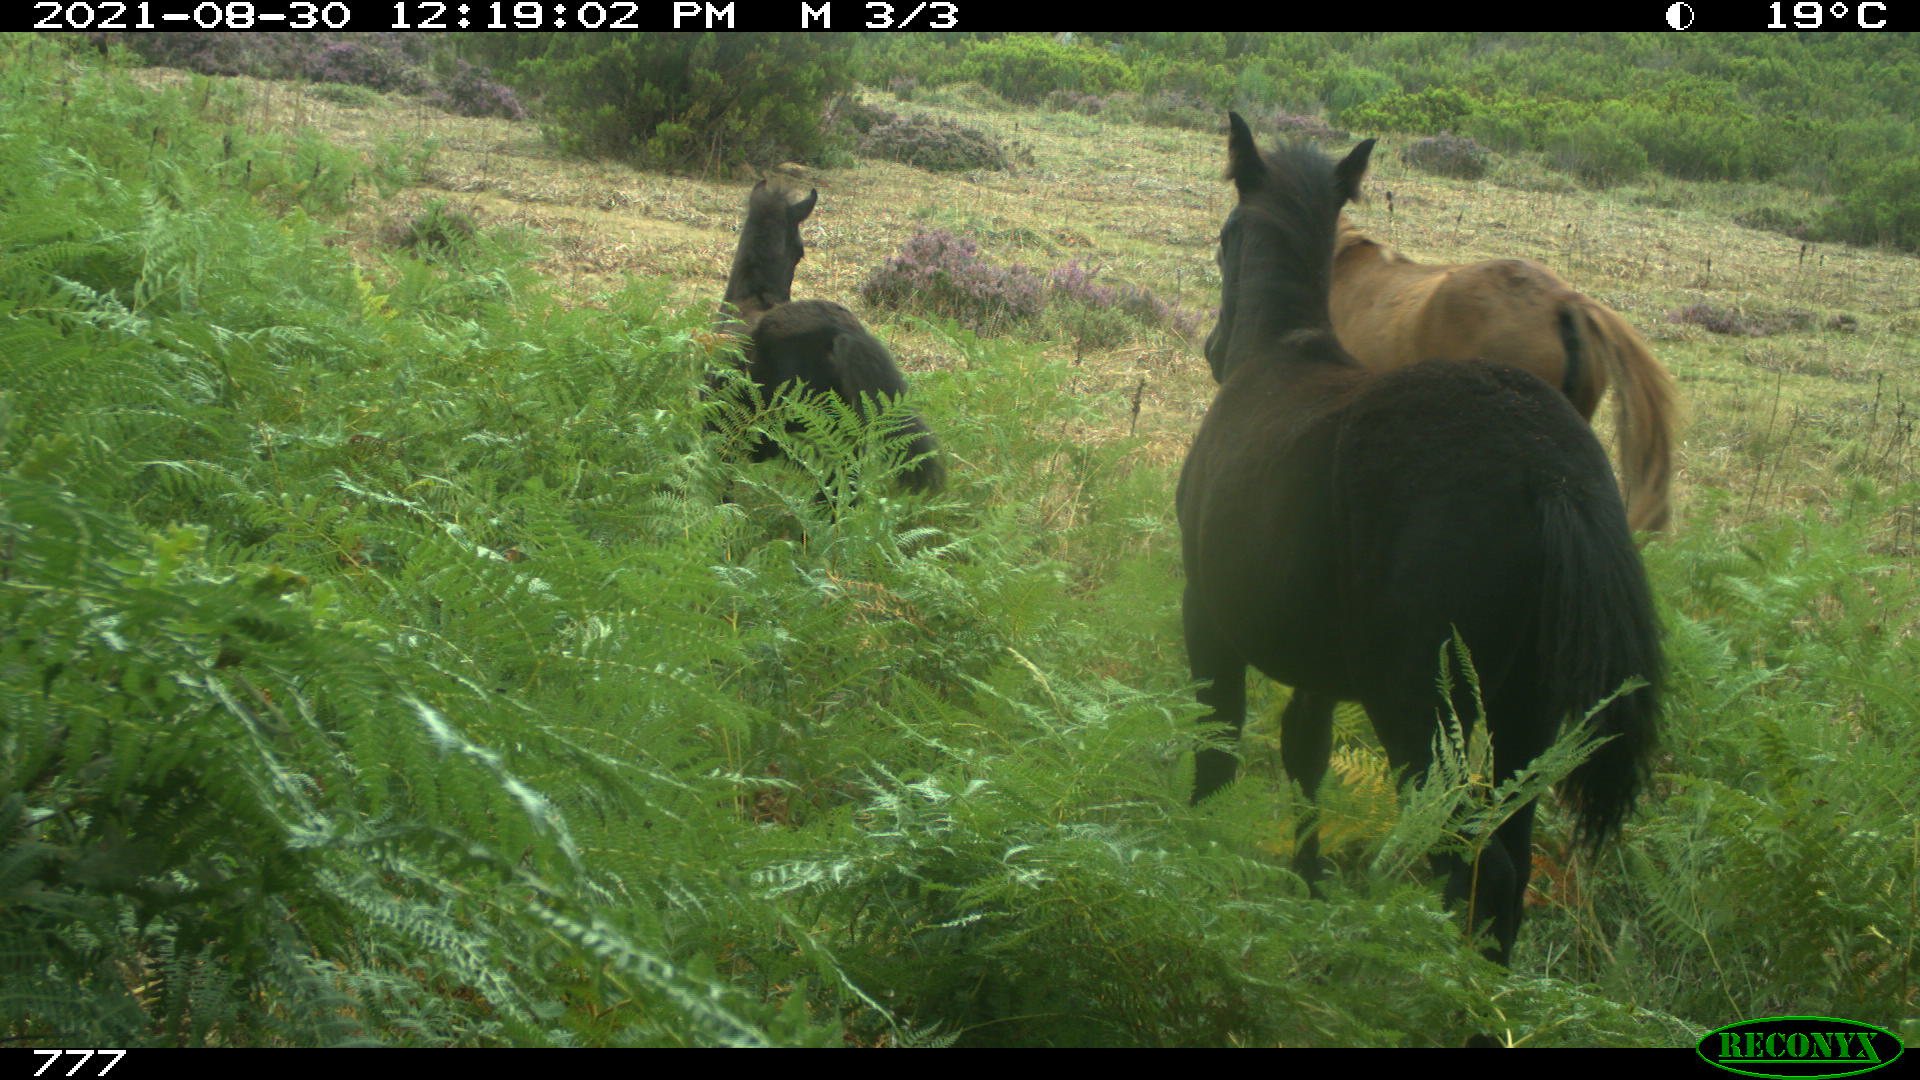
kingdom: Animalia
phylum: Chordata
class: Mammalia
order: Perissodactyla
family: Equidae
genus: Equus
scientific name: Equus caballus
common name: Horse
